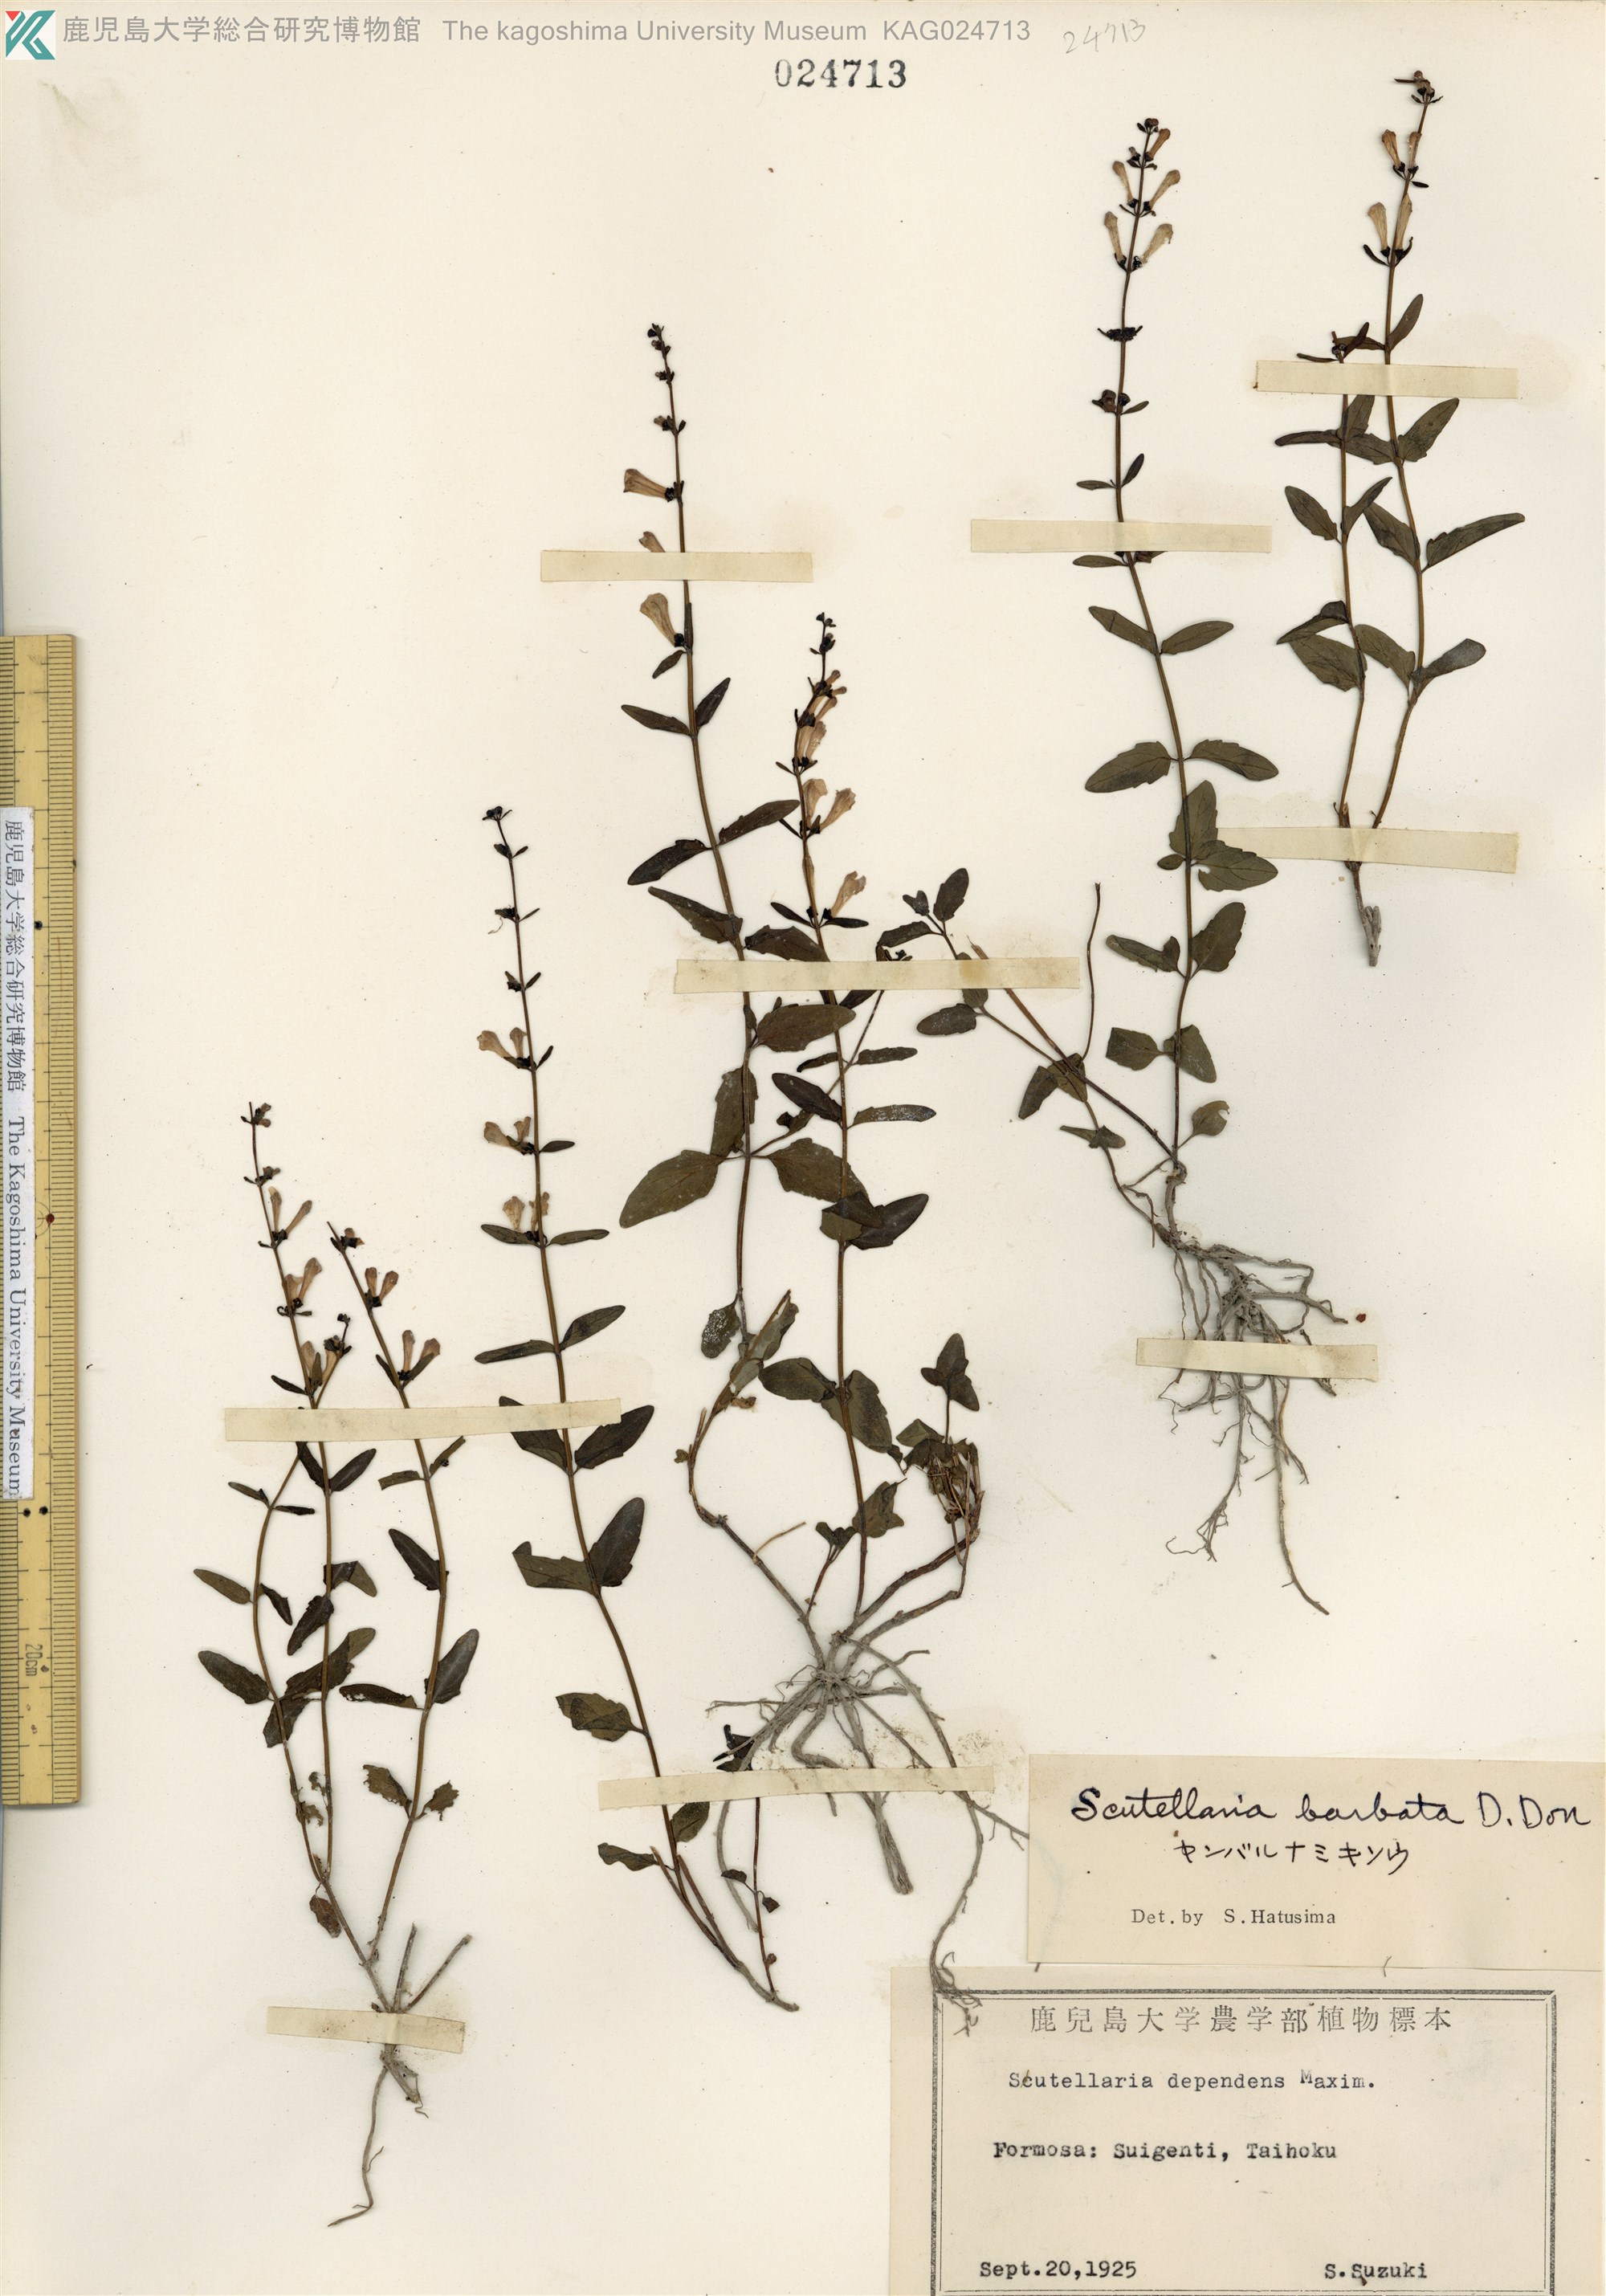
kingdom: Plantae
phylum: Tracheophyta
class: Magnoliopsida
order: Lamiales
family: Lamiaceae
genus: Scutellaria
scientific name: Scutellaria barbata
